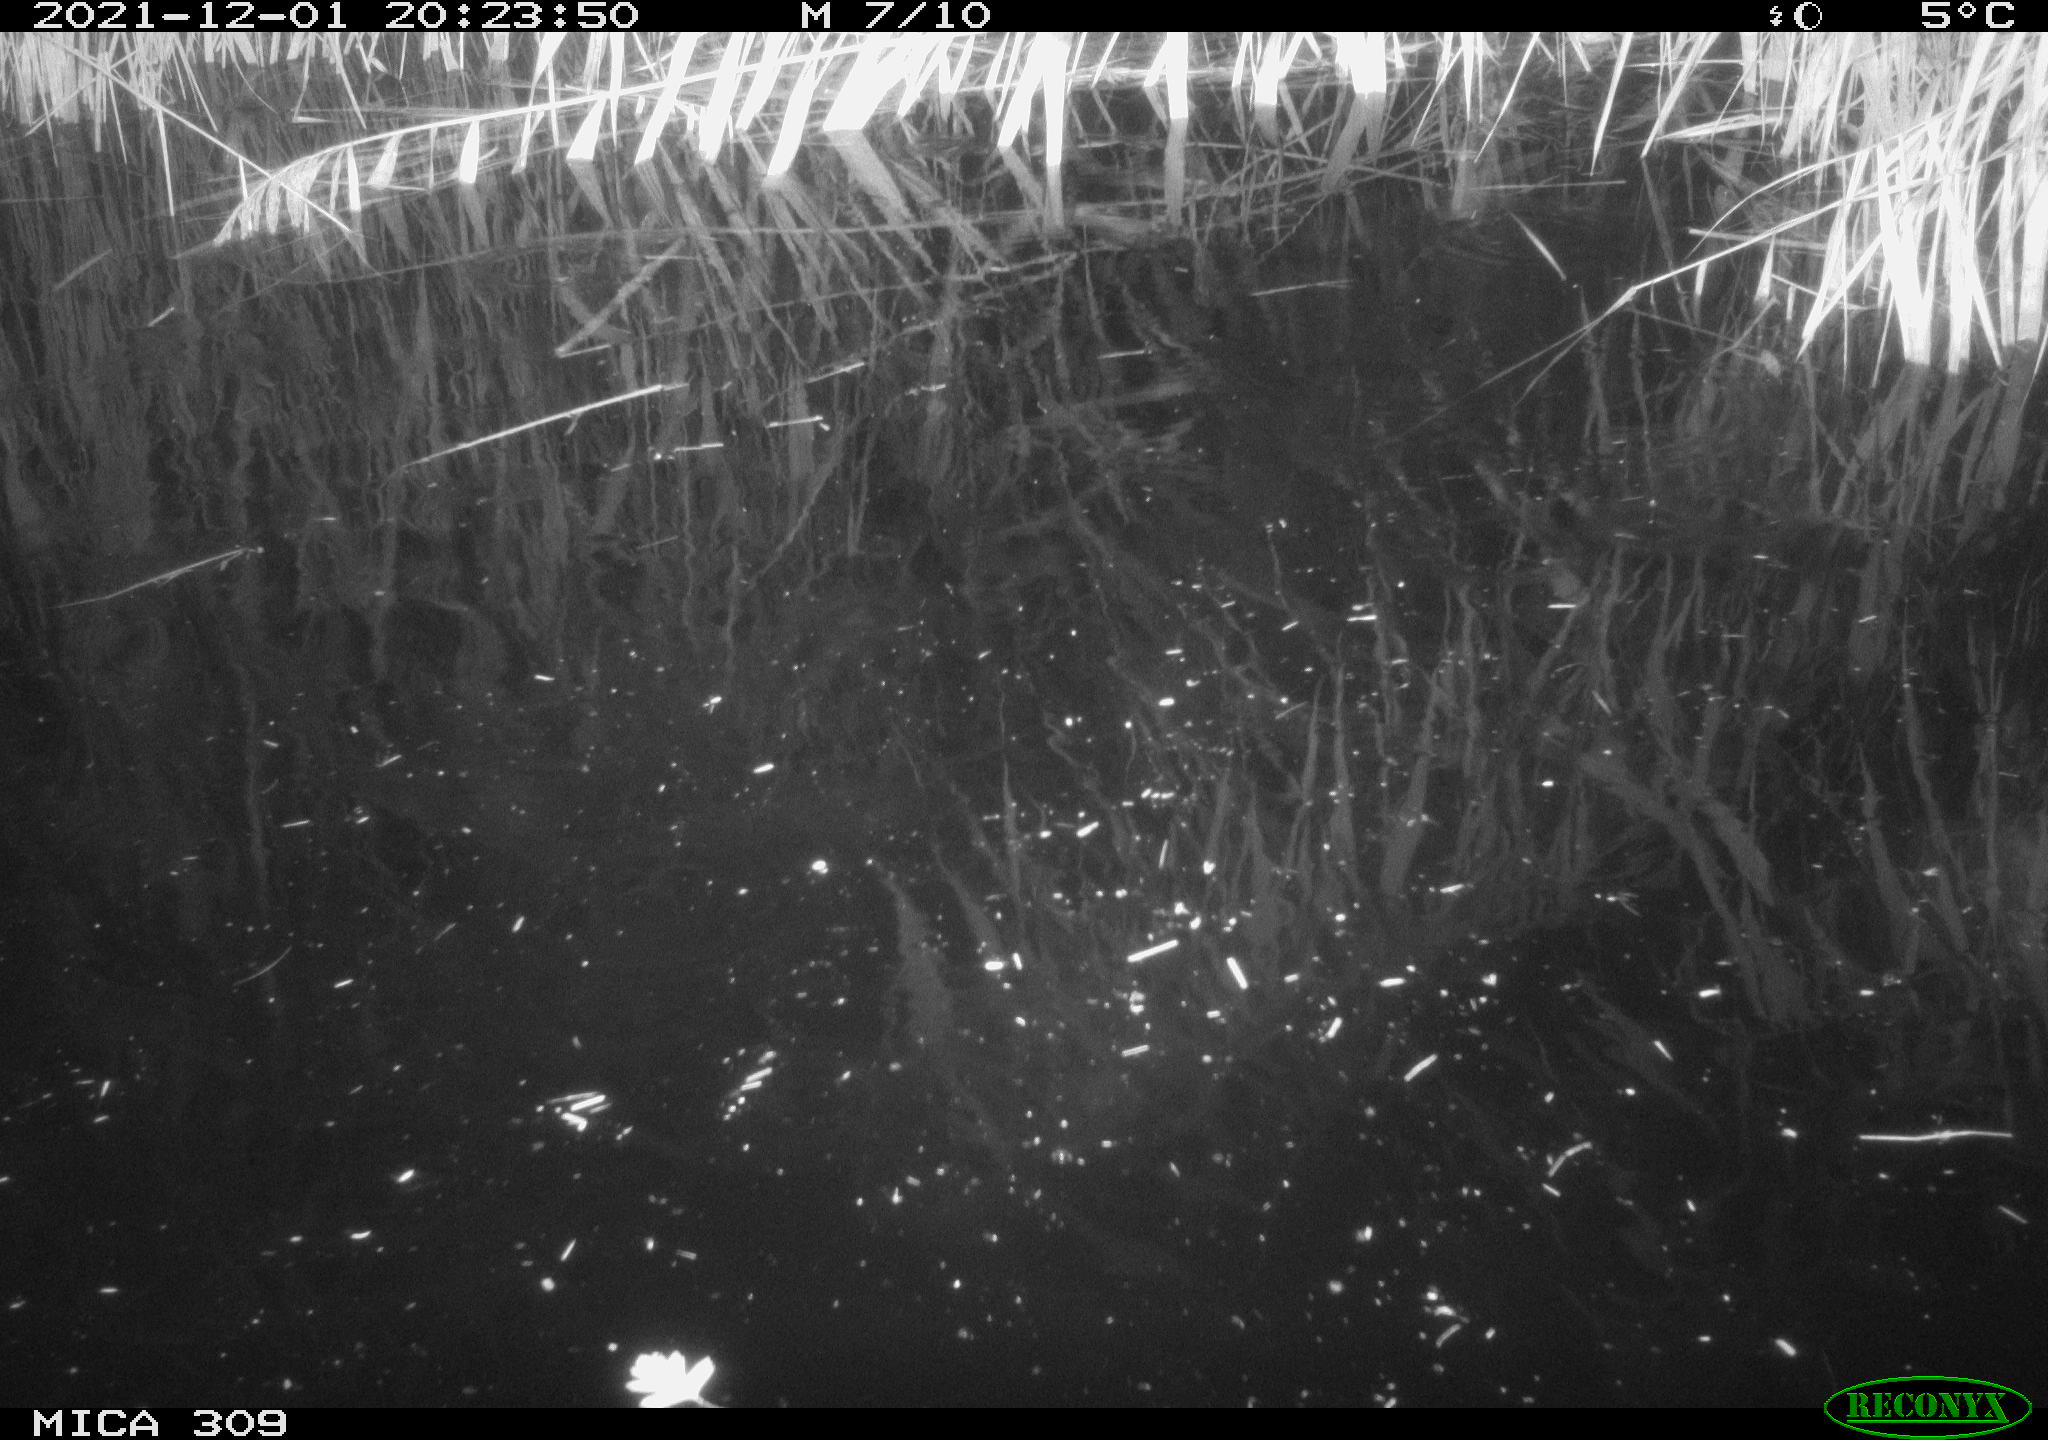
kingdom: Animalia
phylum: Chordata
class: Mammalia
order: Rodentia
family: Muridae
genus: Rattus
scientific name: Rattus norvegicus
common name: Brown rat
